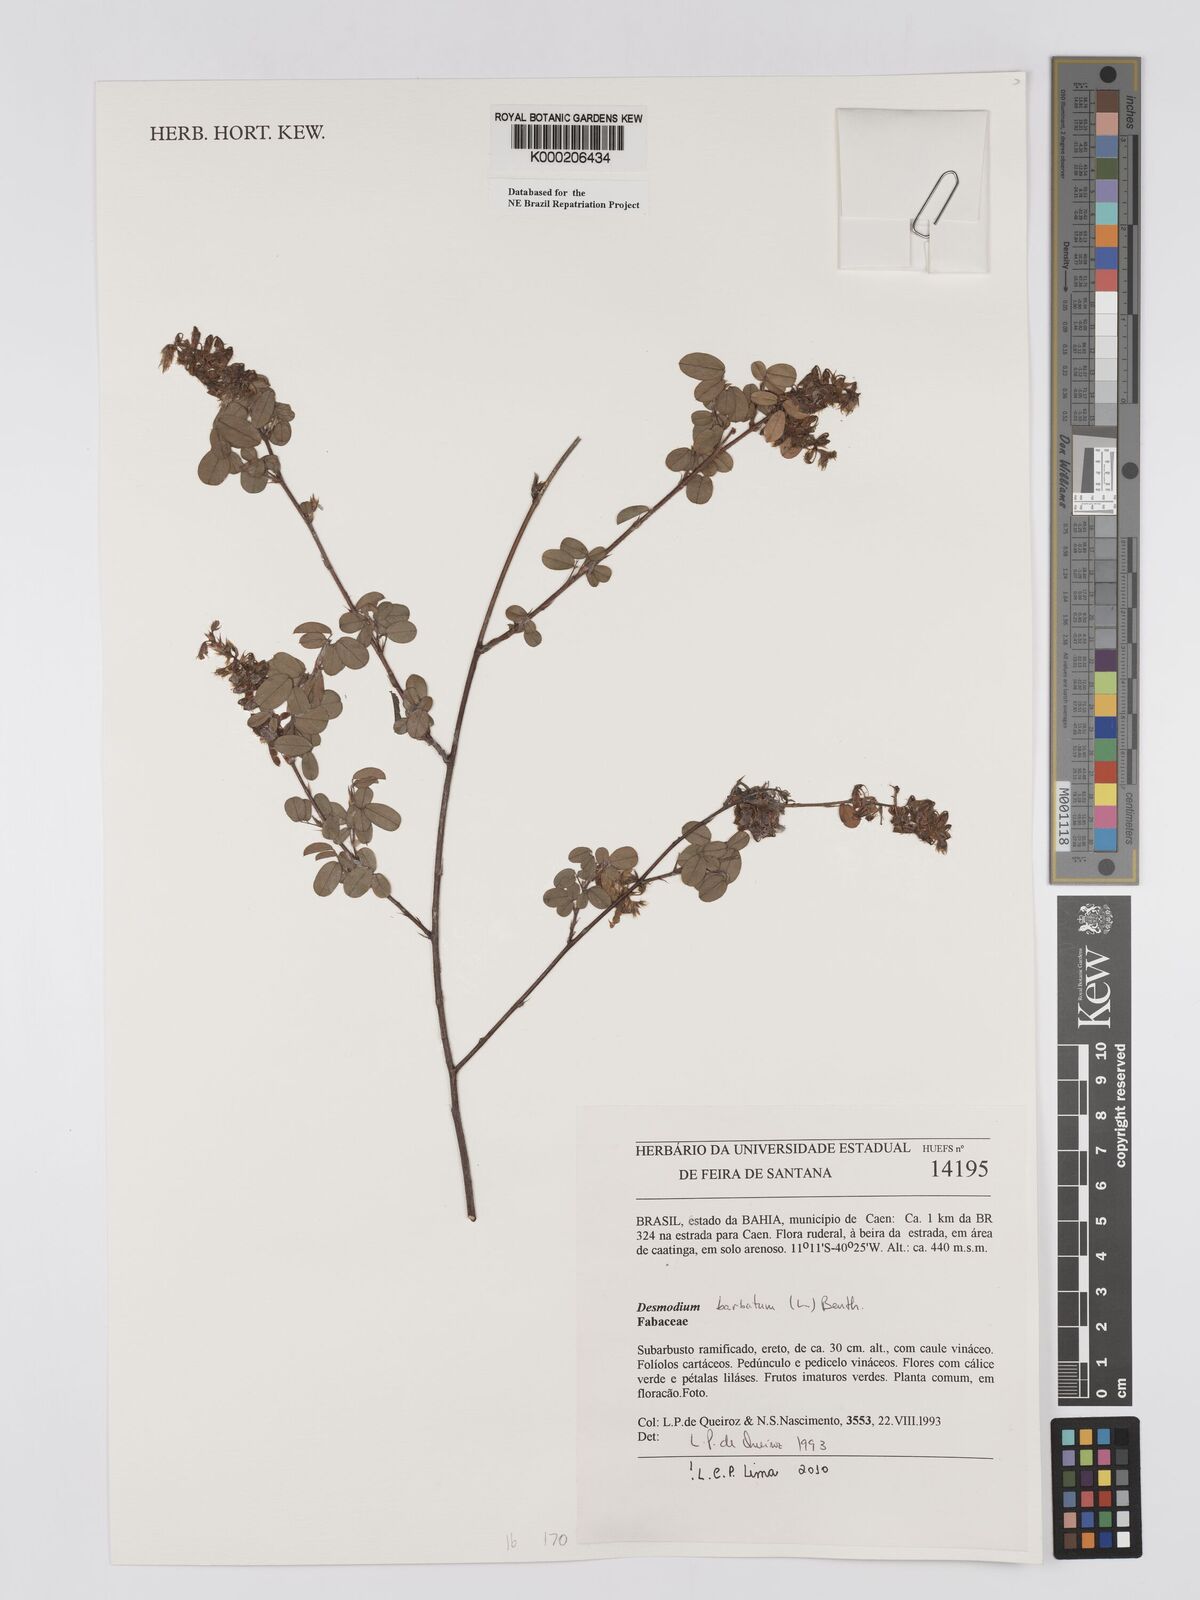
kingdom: Plantae
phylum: Tracheophyta
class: Magnoliopsida
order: Fabales
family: Fabaceae
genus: Grona
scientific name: Grona barbata
